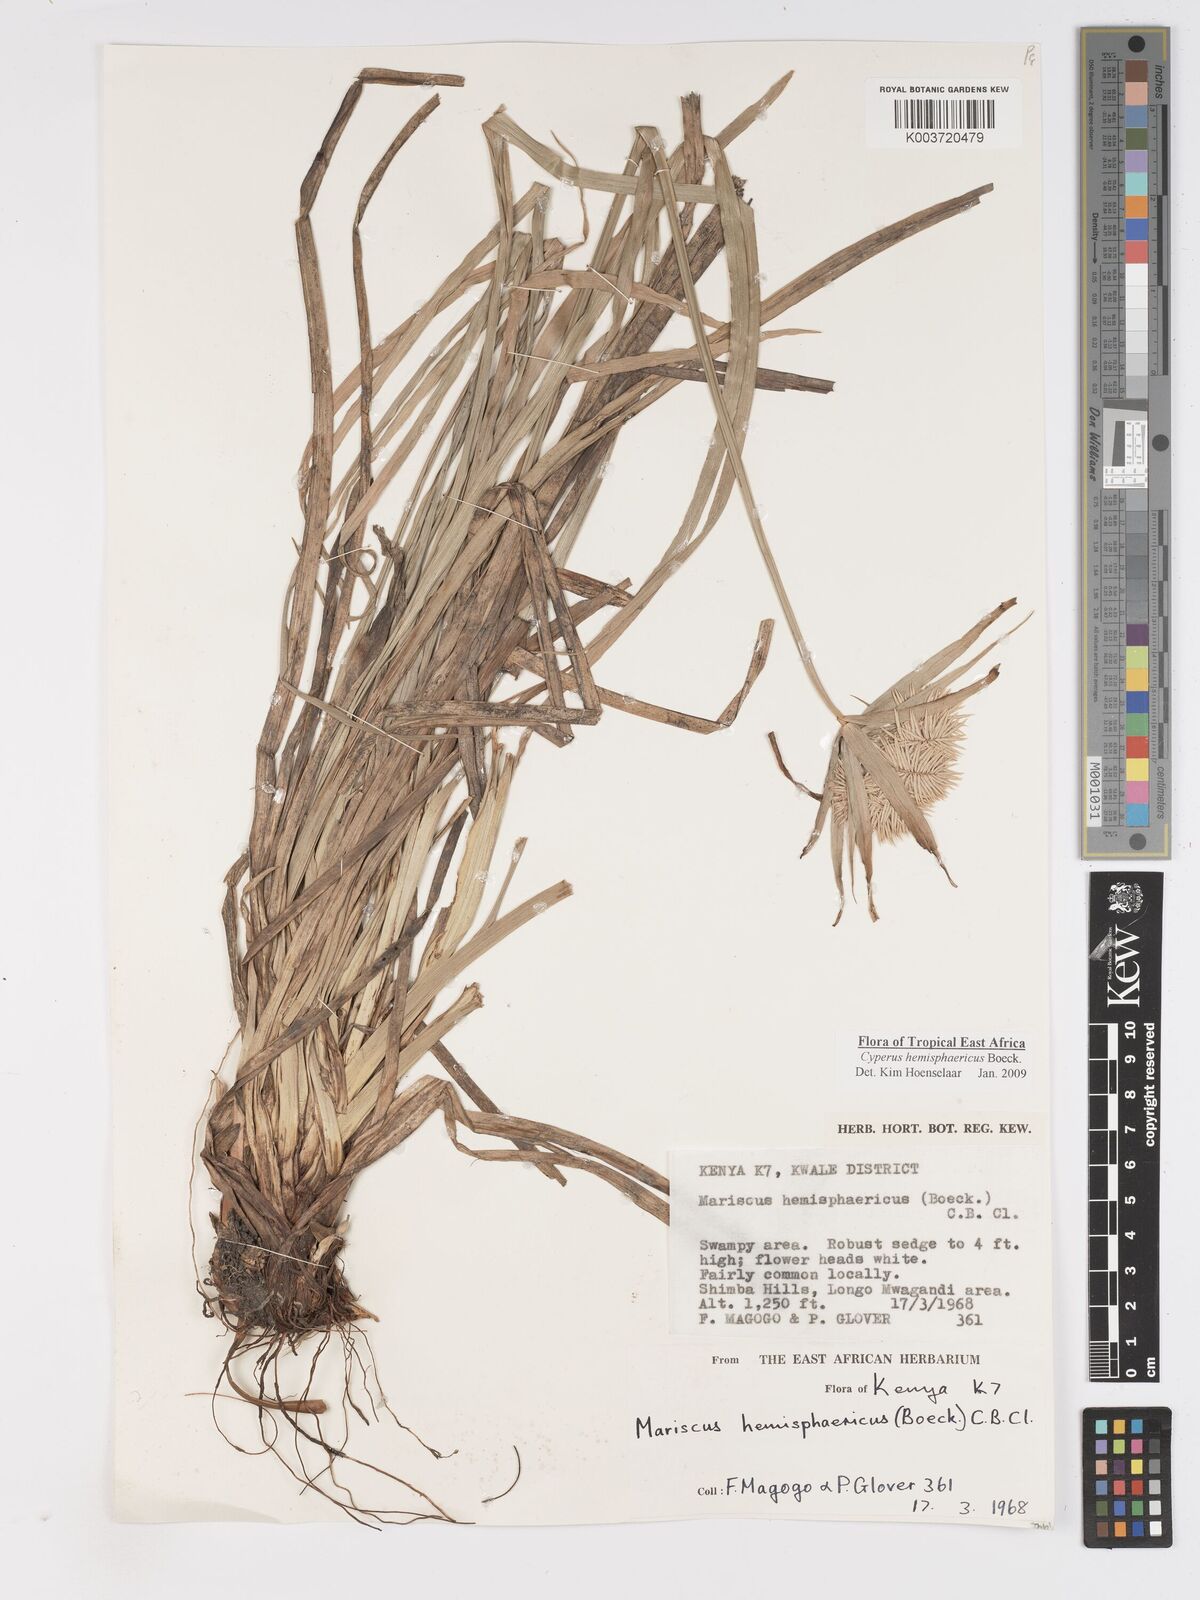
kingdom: Plantae
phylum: Tracheophyta
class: Liliopsida
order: Poales
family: Cyperaceae
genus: Cyperus
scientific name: Cyperus hemisphaericus
